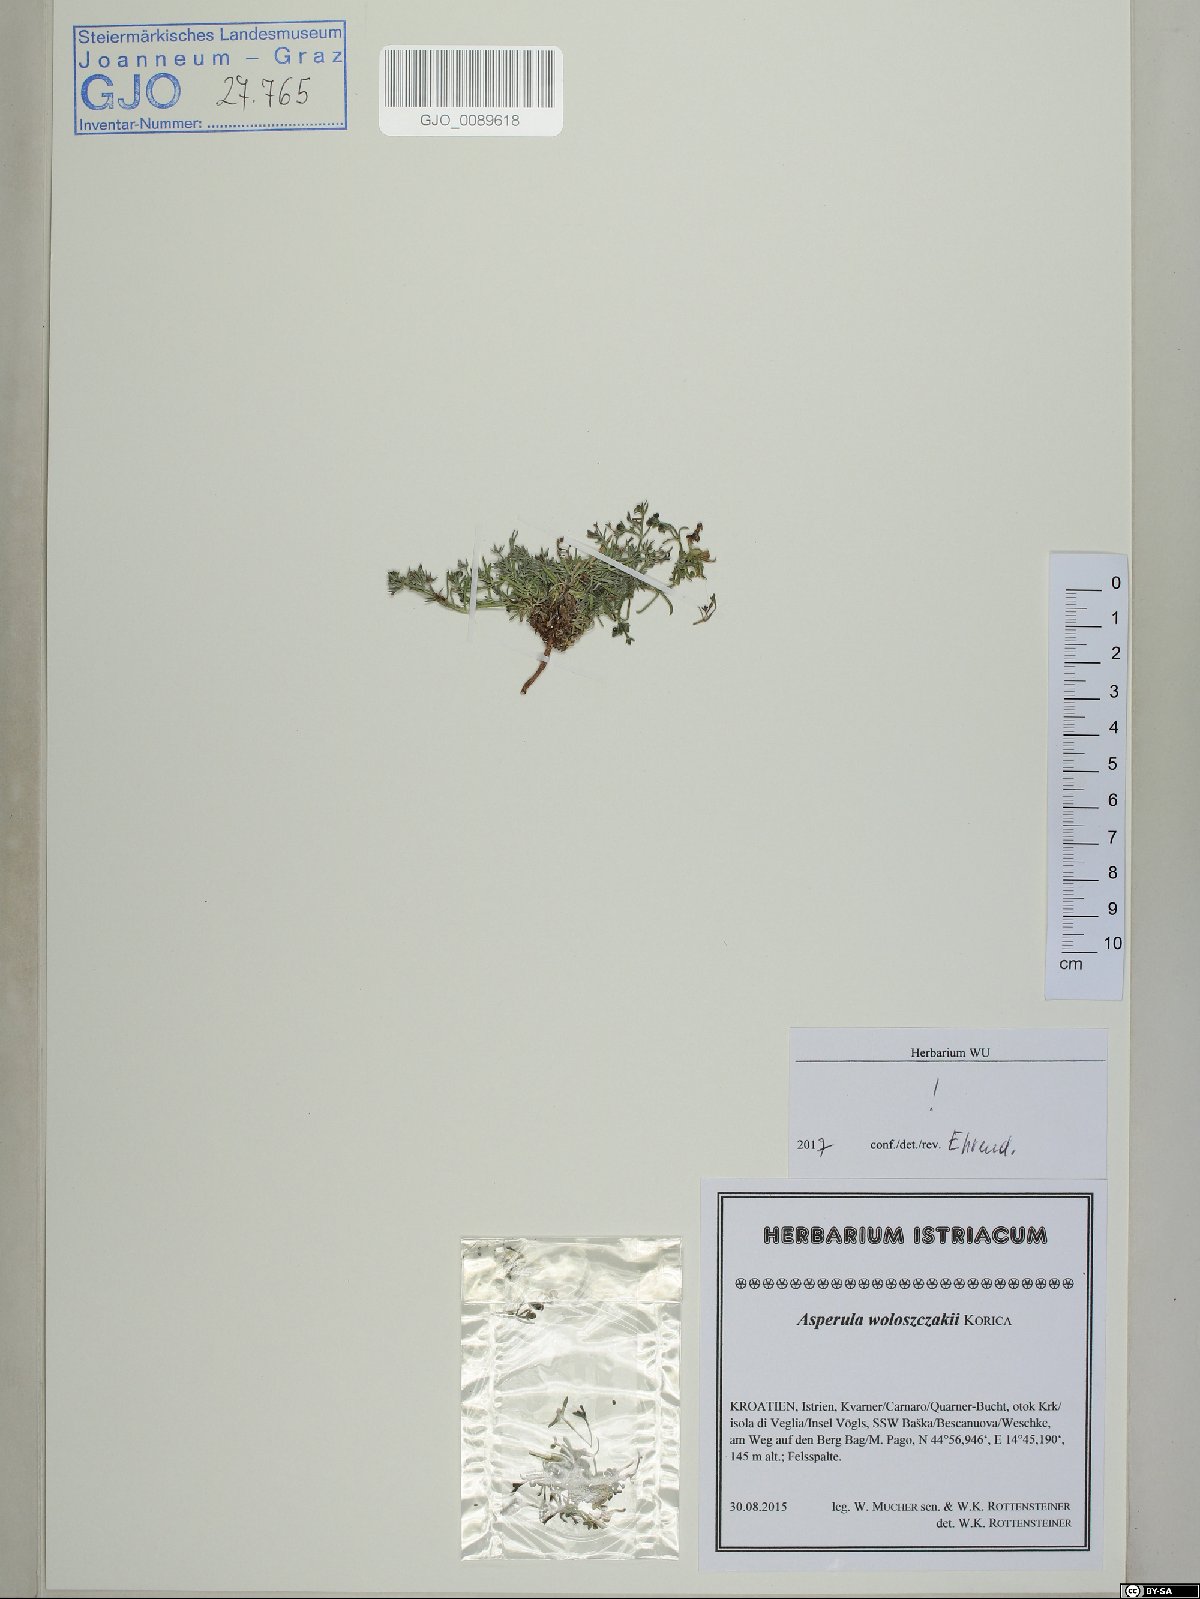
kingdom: Plantae
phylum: Tracheophyta
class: Magnoliopsida
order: Gentianales
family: Rubiaceae
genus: Cynanchica
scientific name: Cynanchica woloszczakii
